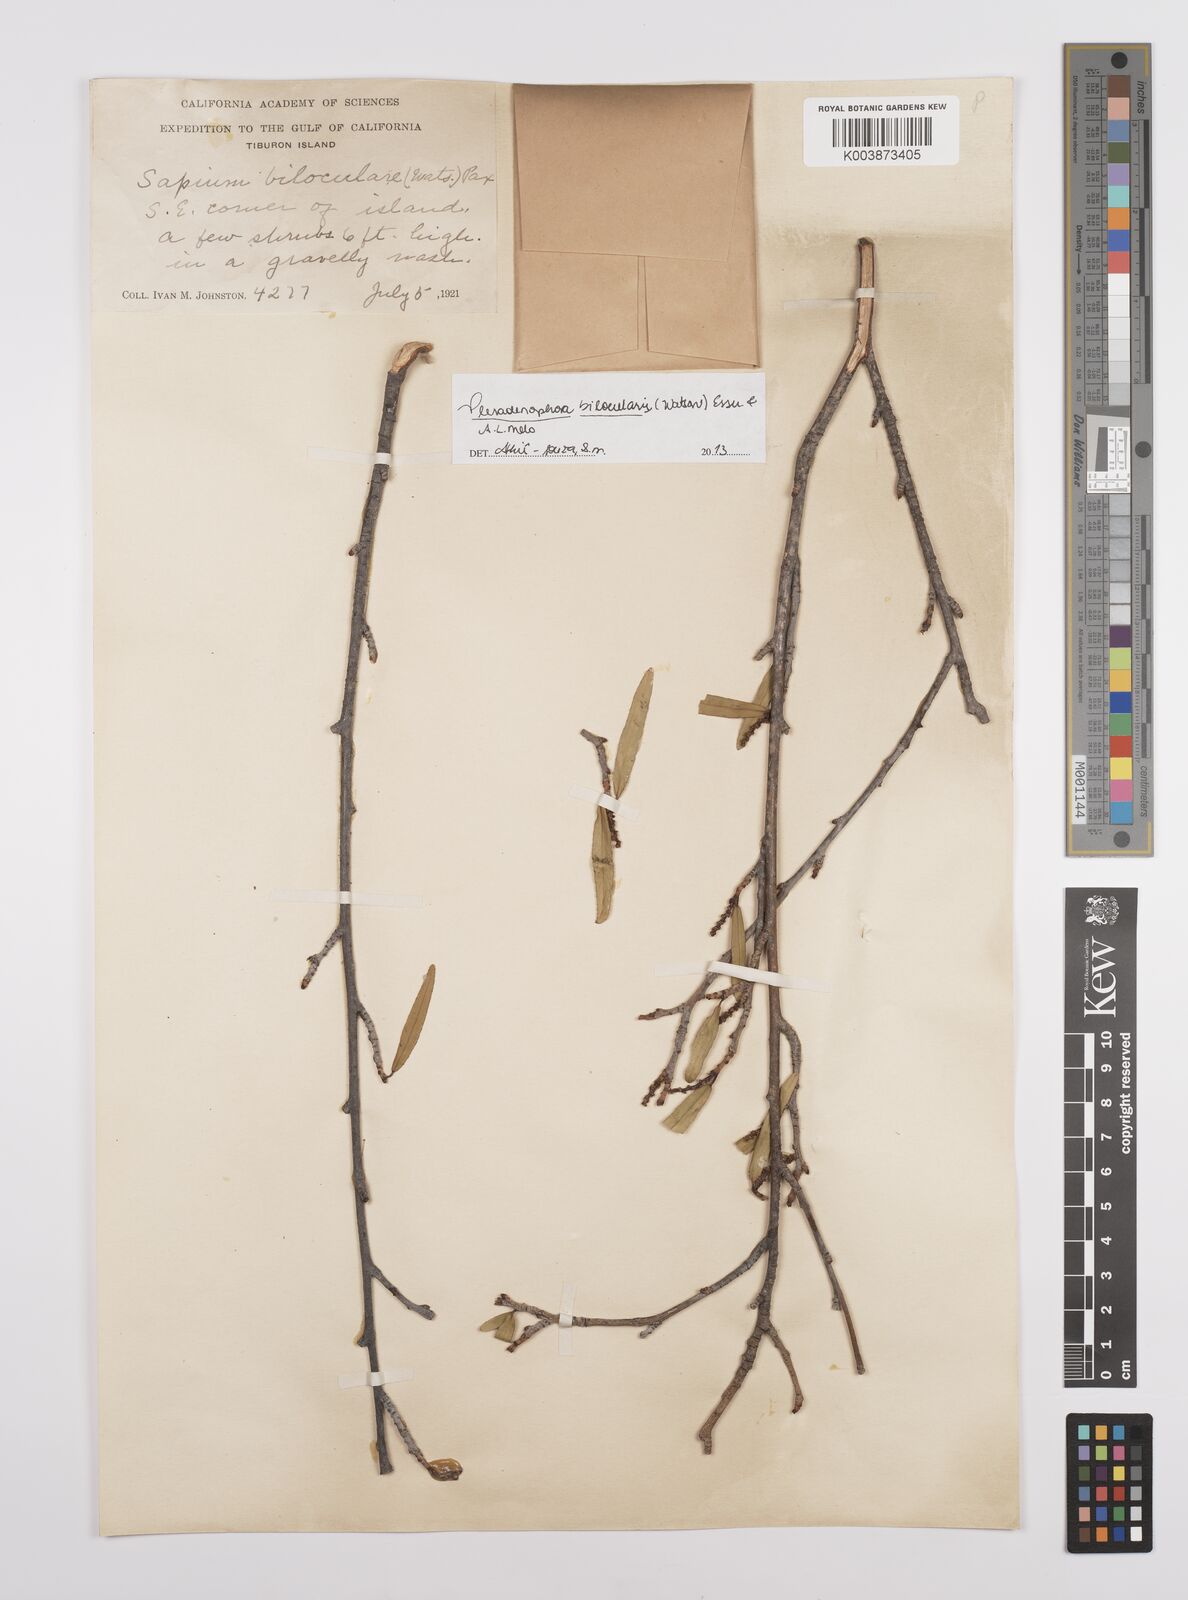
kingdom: Plantae
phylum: Tracheophyta
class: Magnoliopsida
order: Malpighiales
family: Euphorbiaceae
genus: Pleradenophora
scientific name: Pleradenophora bilocularis
